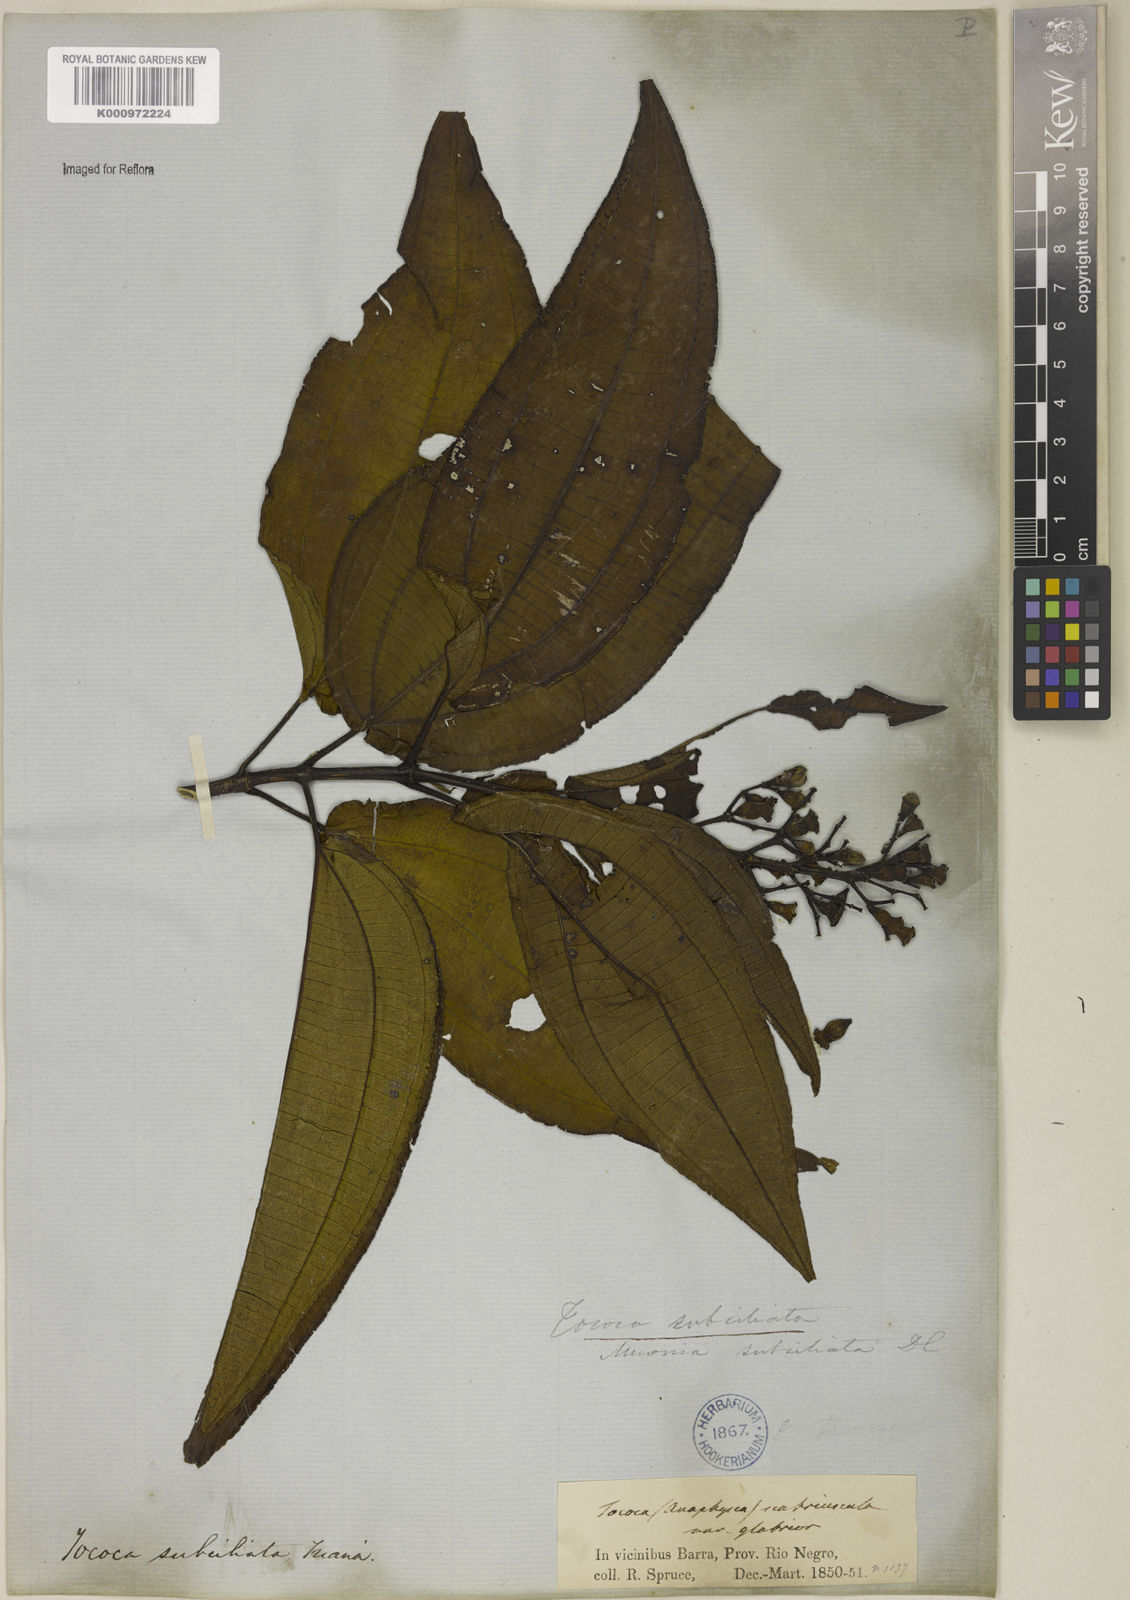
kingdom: Plantae
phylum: Tracheophyta
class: Magnoliopsida
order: Myrtales
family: Melastomataceae
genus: Miconia
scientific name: Miconia subciliata
